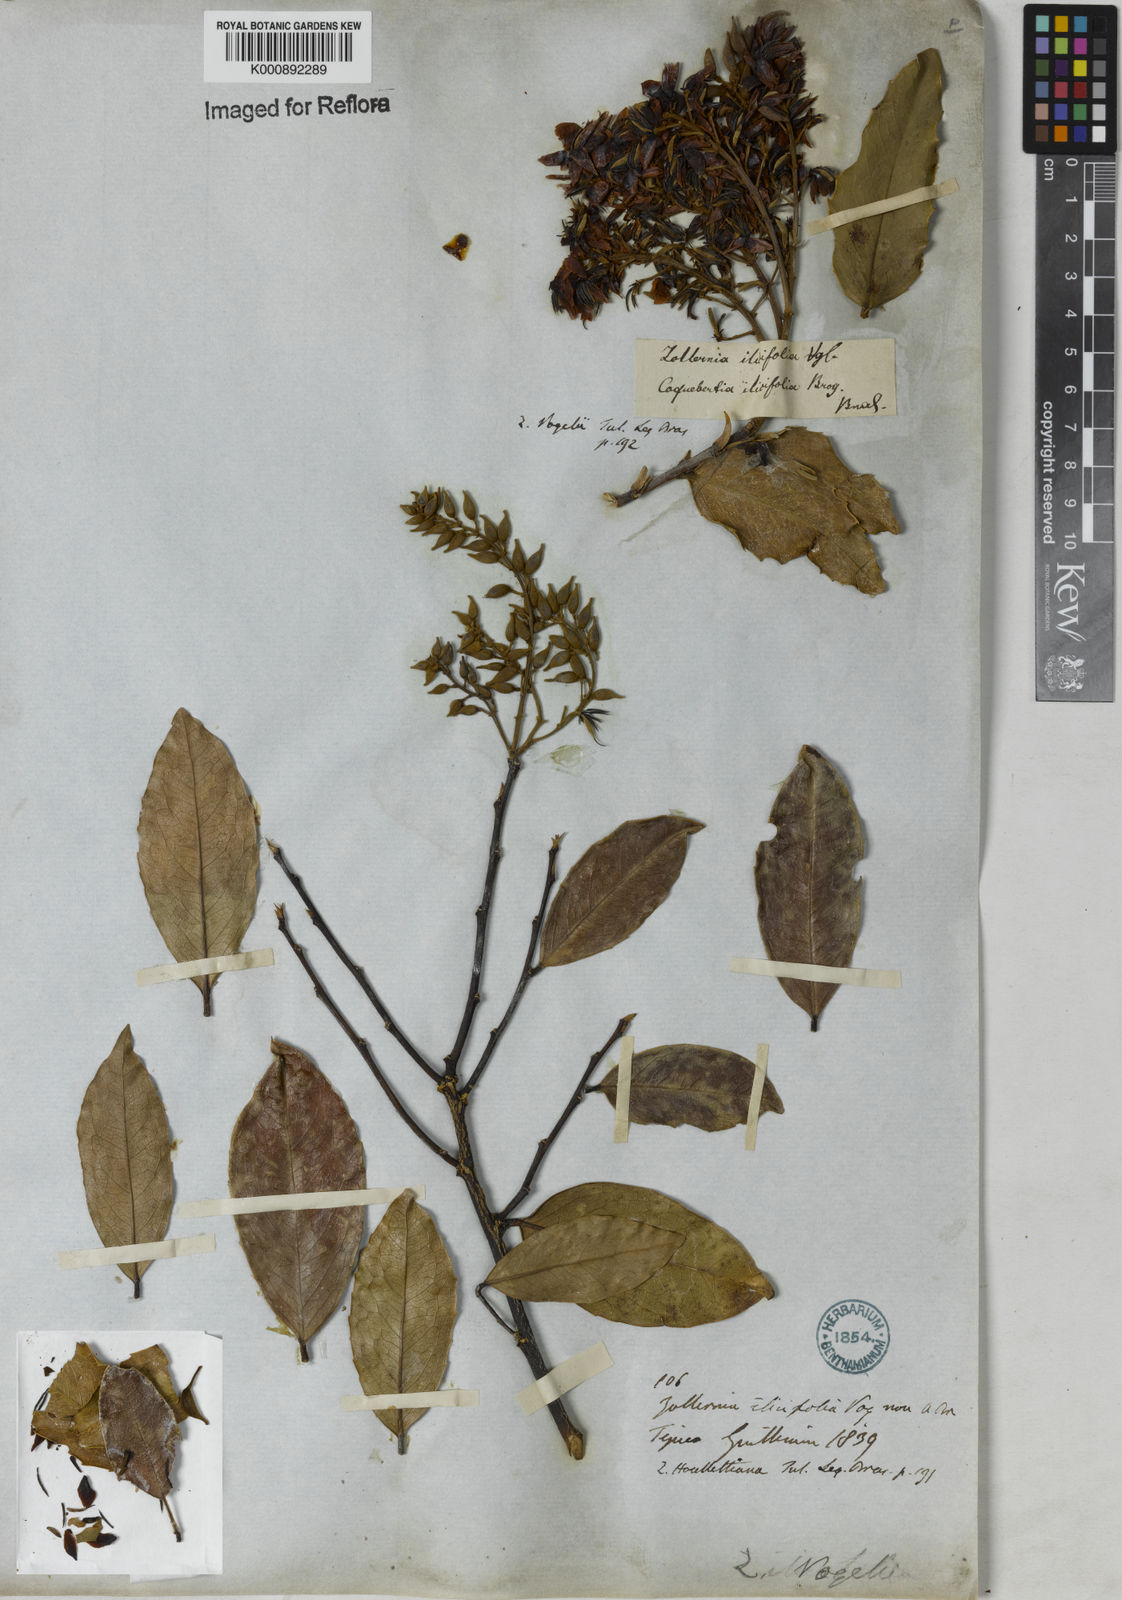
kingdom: Plantae
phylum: Tracheophyta
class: Magnoliopsida
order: Fabales
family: Fabaceae
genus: Zollernia
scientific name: Zollernia ilicifolia
